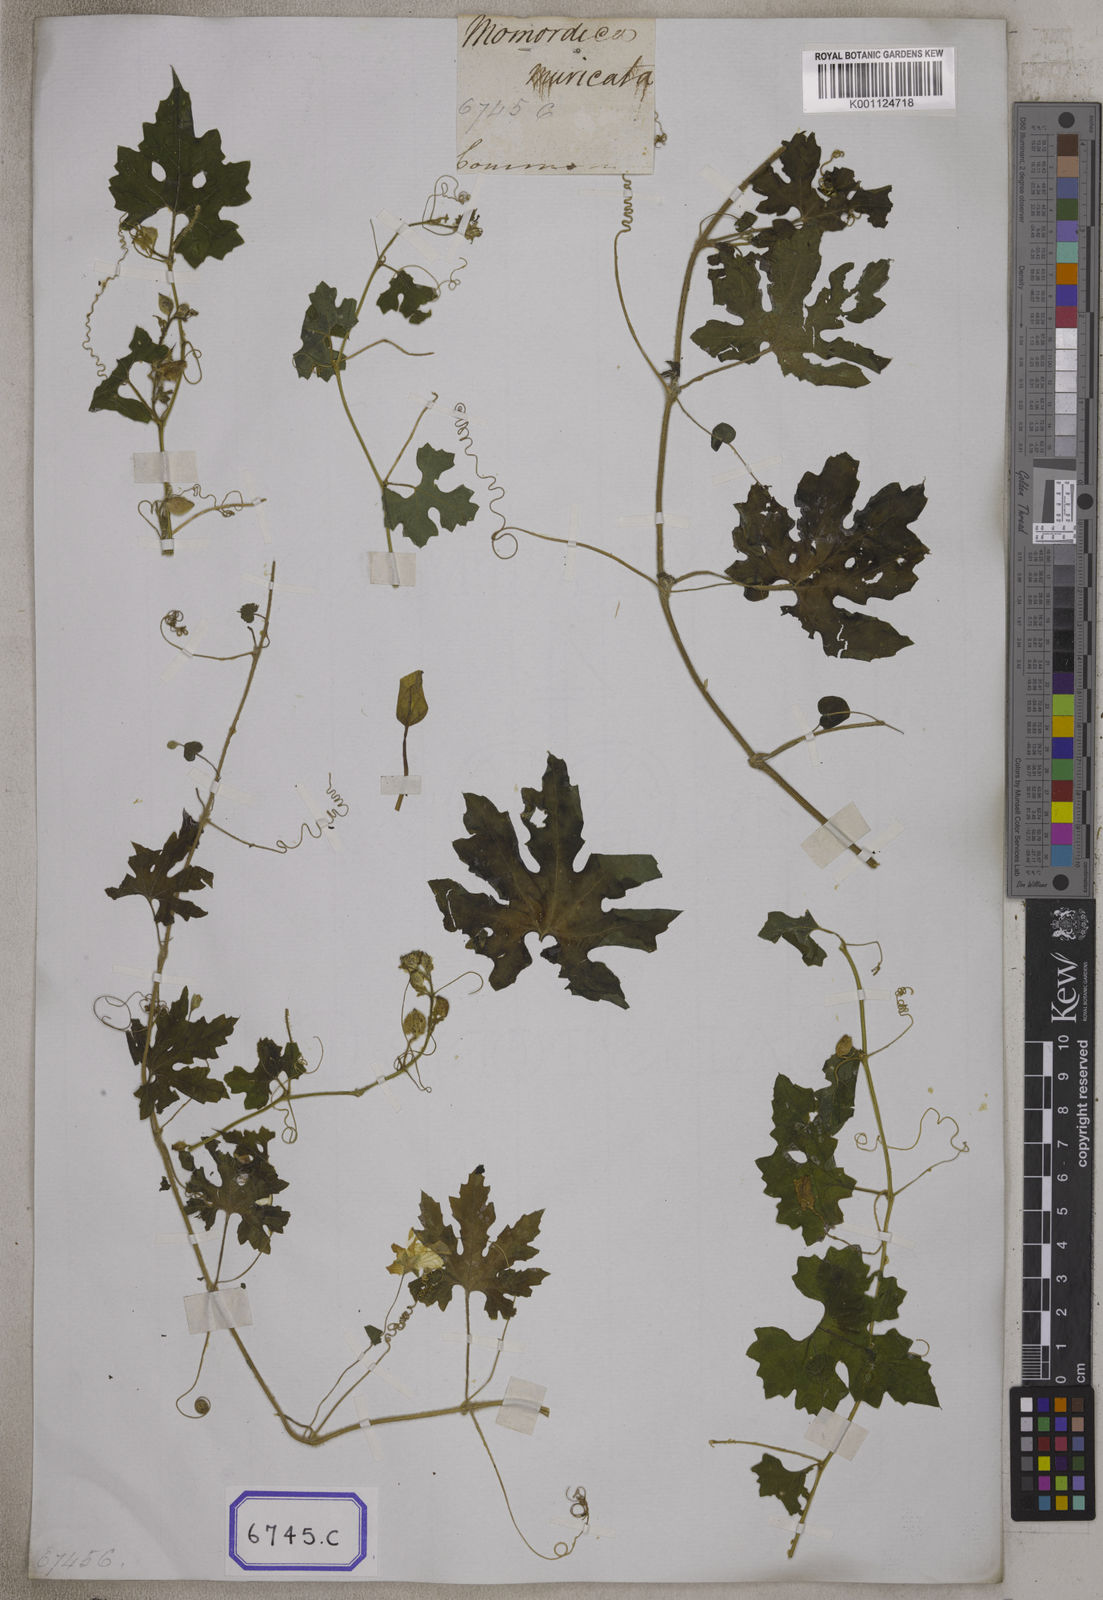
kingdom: Plantae
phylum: Tracheophyta
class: Magnoliopsida
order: Cucurbitales
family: Cucurbitaceae
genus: Momordica
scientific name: Momordica
